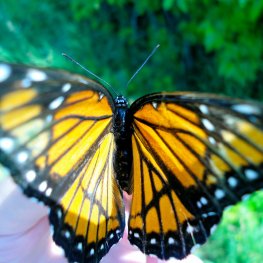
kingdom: Animalia
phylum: Arthropoda
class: Insecta
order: Lepidoptera
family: Nymphalidae
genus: Limenitis
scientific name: Limenitis archippus
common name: Viceroy
